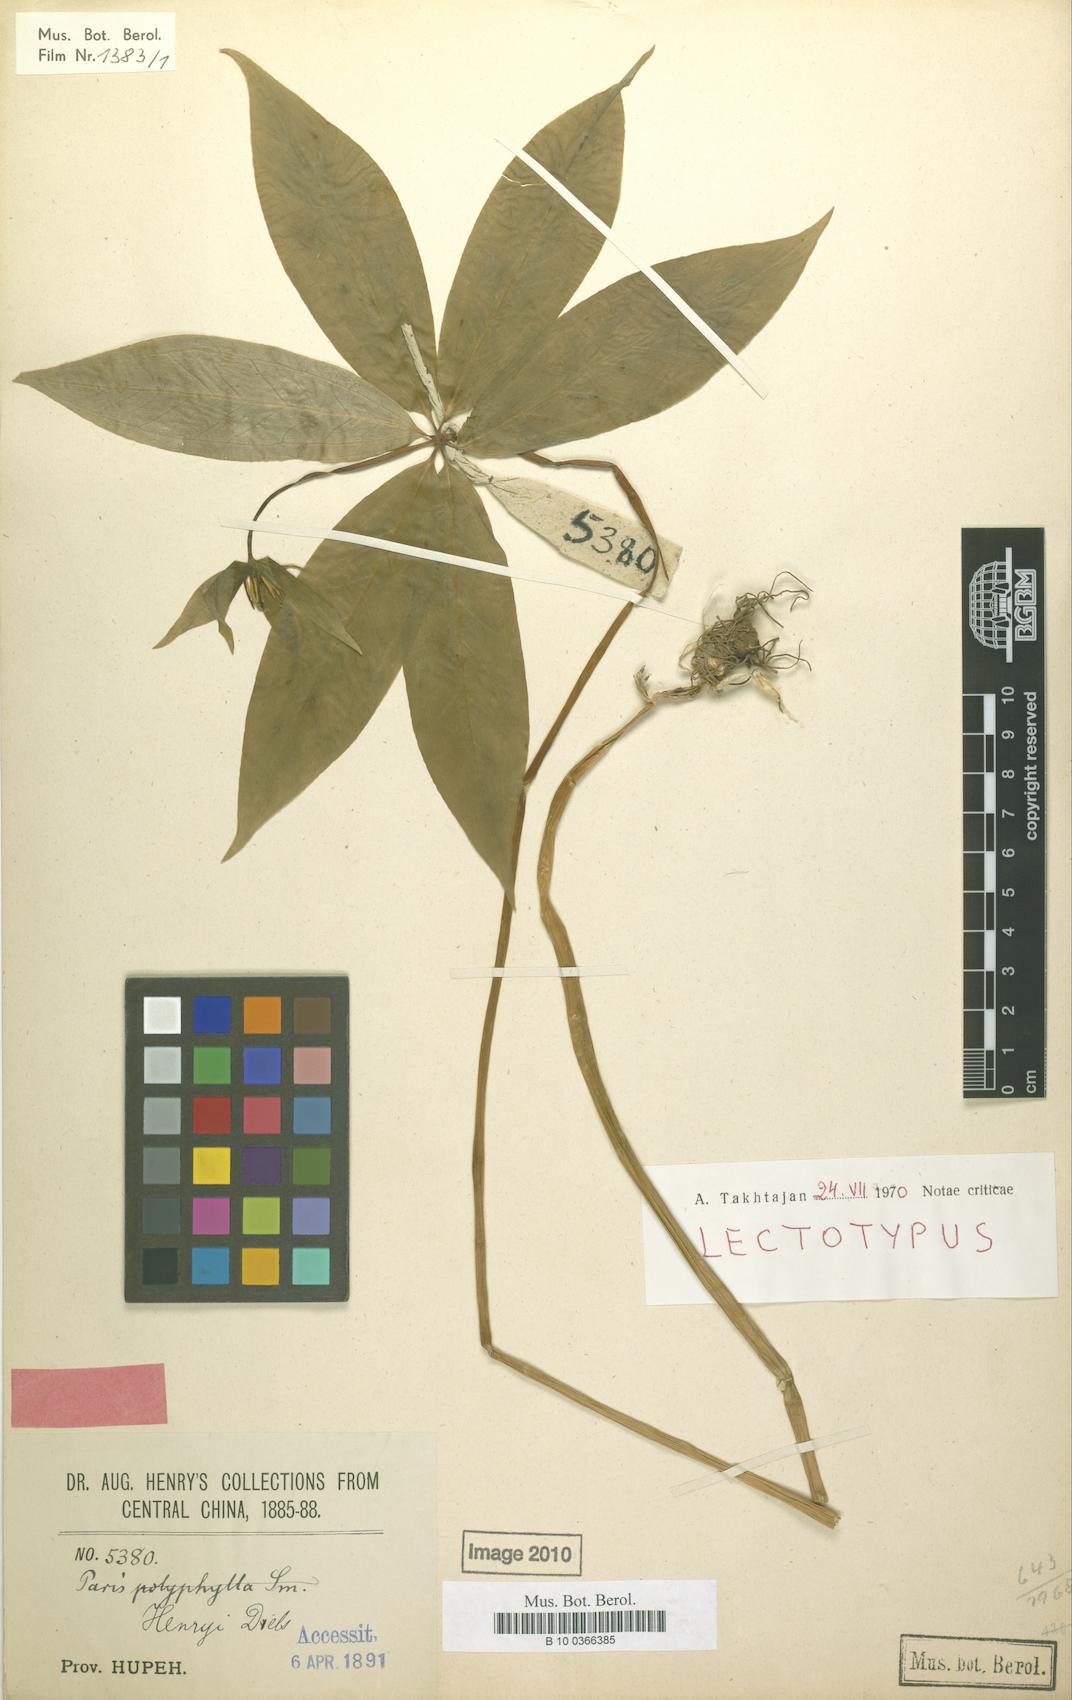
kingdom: Plantae
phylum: Tracheophyta
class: Liliopsida
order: Liliales
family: Melanthiaceae
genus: Paris
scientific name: Paris delavayi
